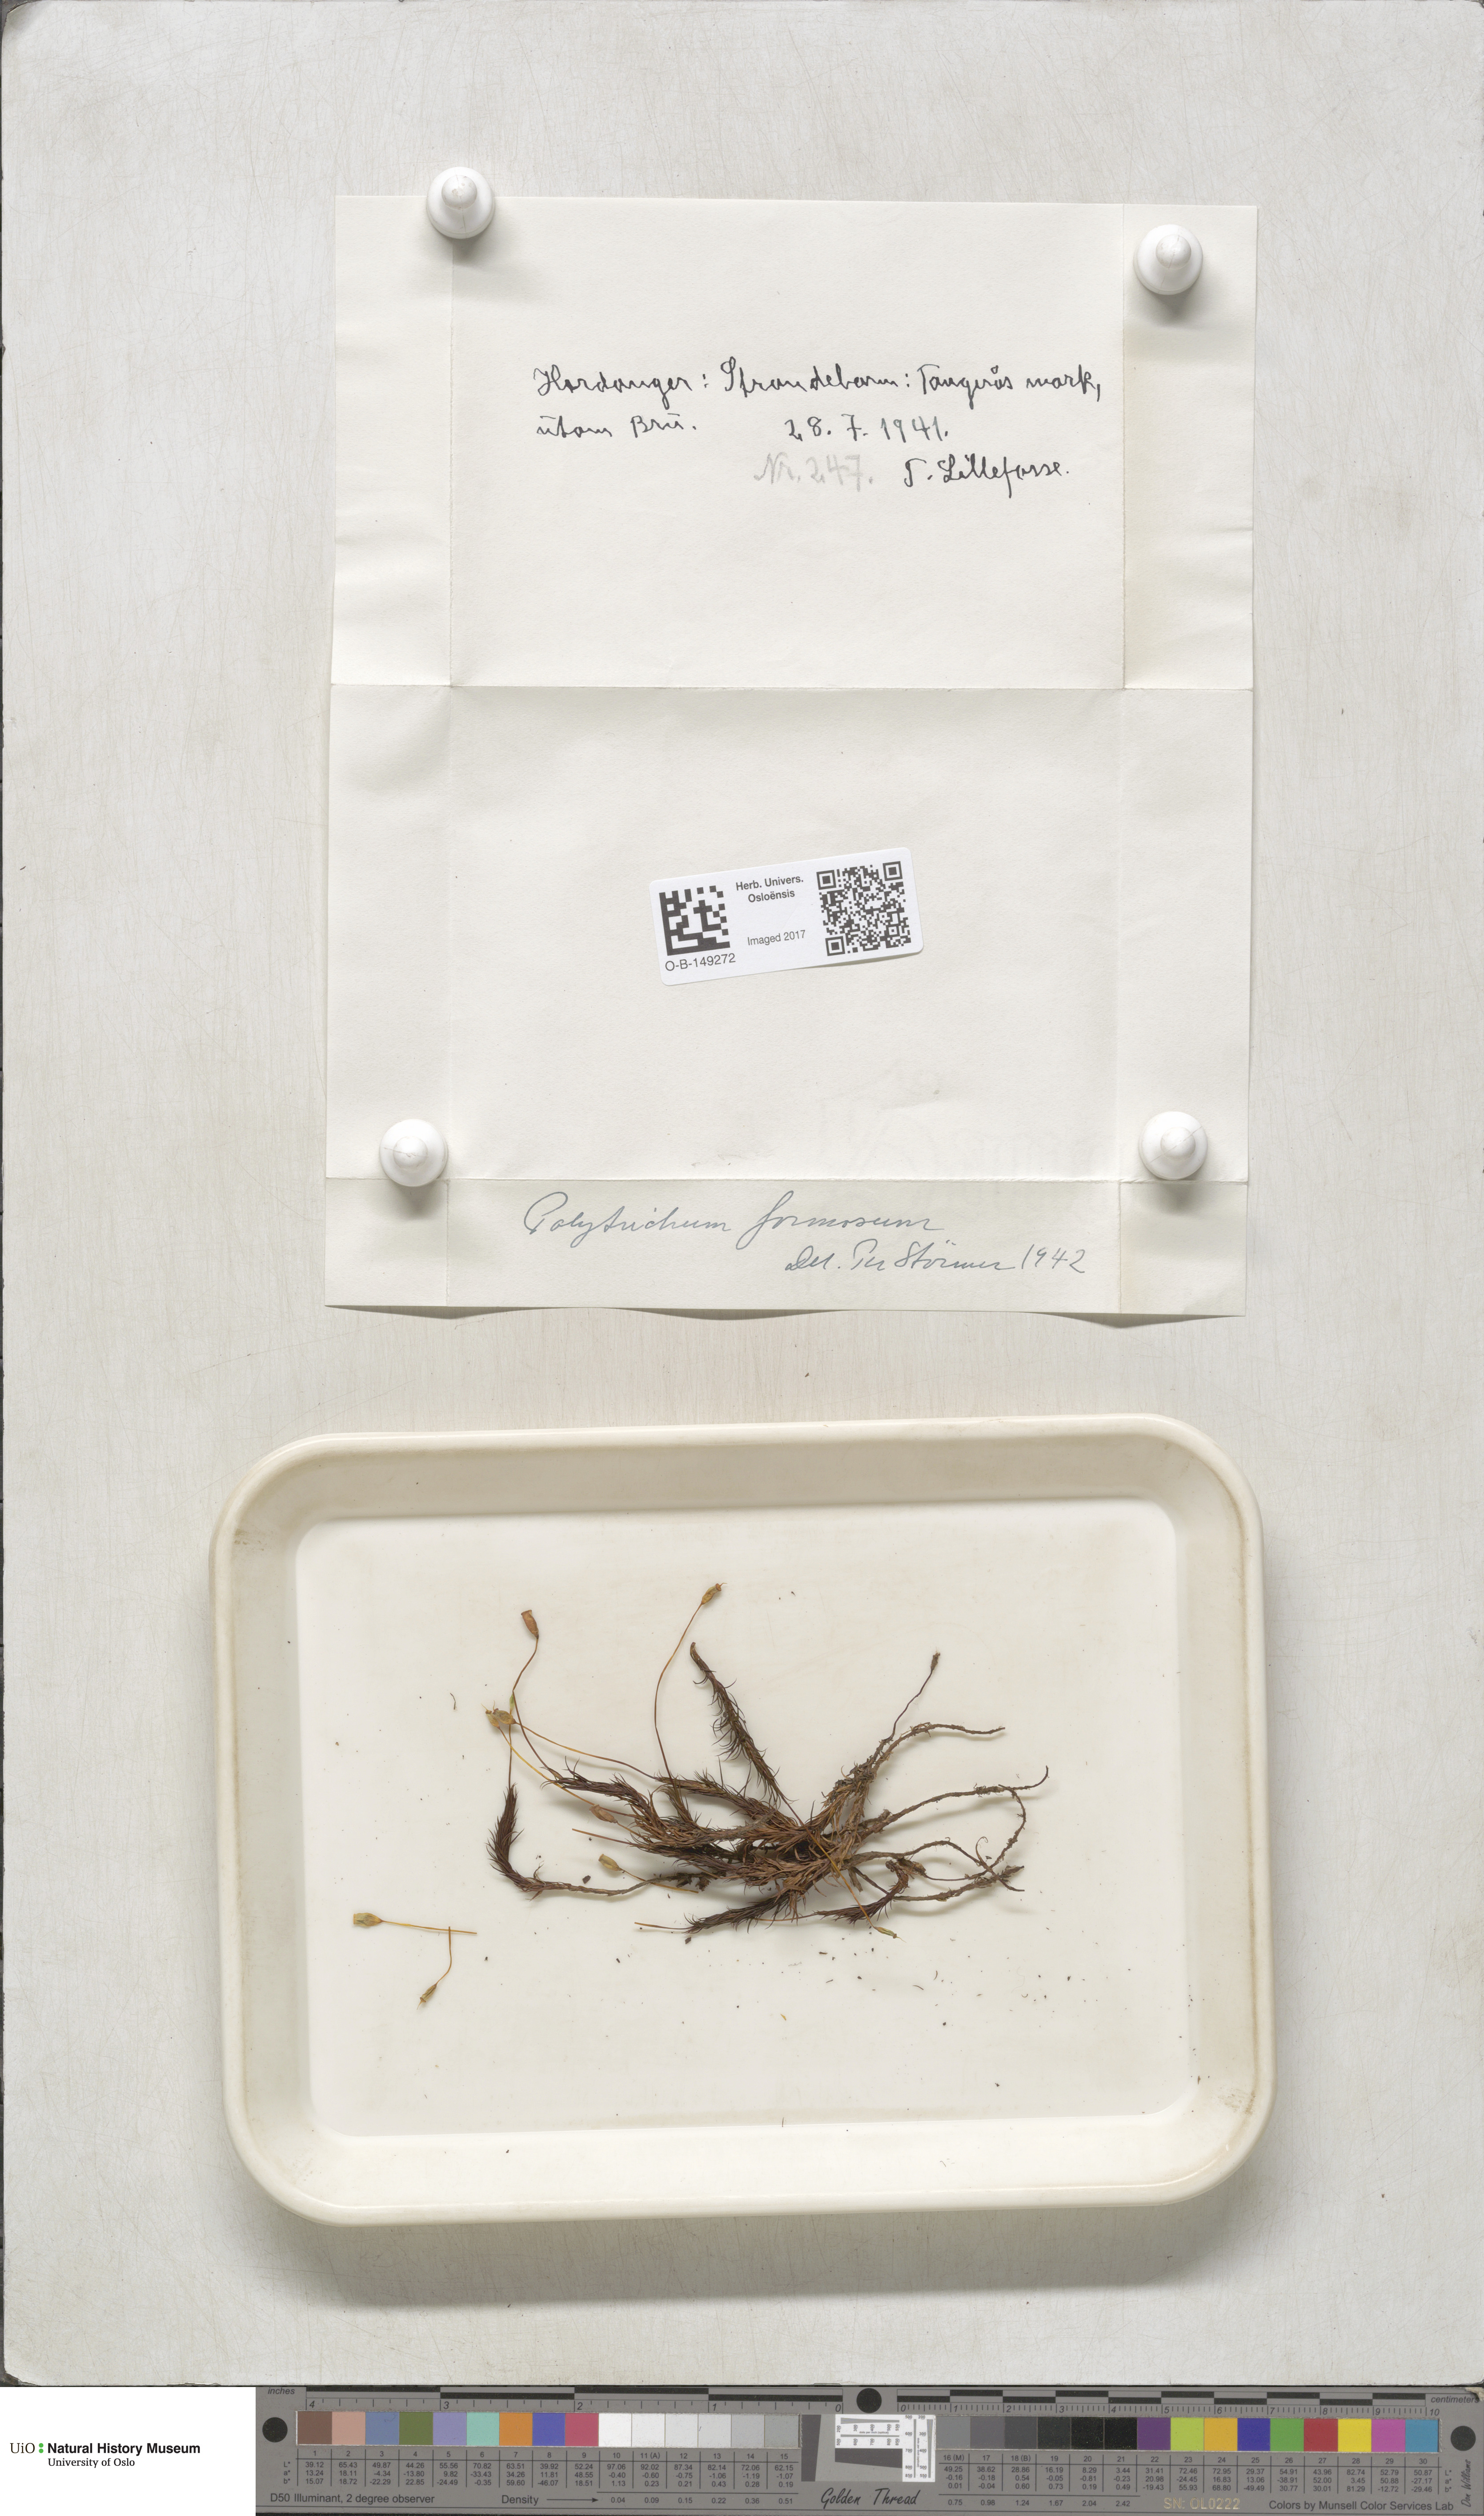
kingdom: Plantae
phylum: Bryophyta
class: Polytrichopsida
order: Polytrichales
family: Polytrichaceae
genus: Polytrichum
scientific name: Polytrichum formosum
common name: Bank haircap moss
